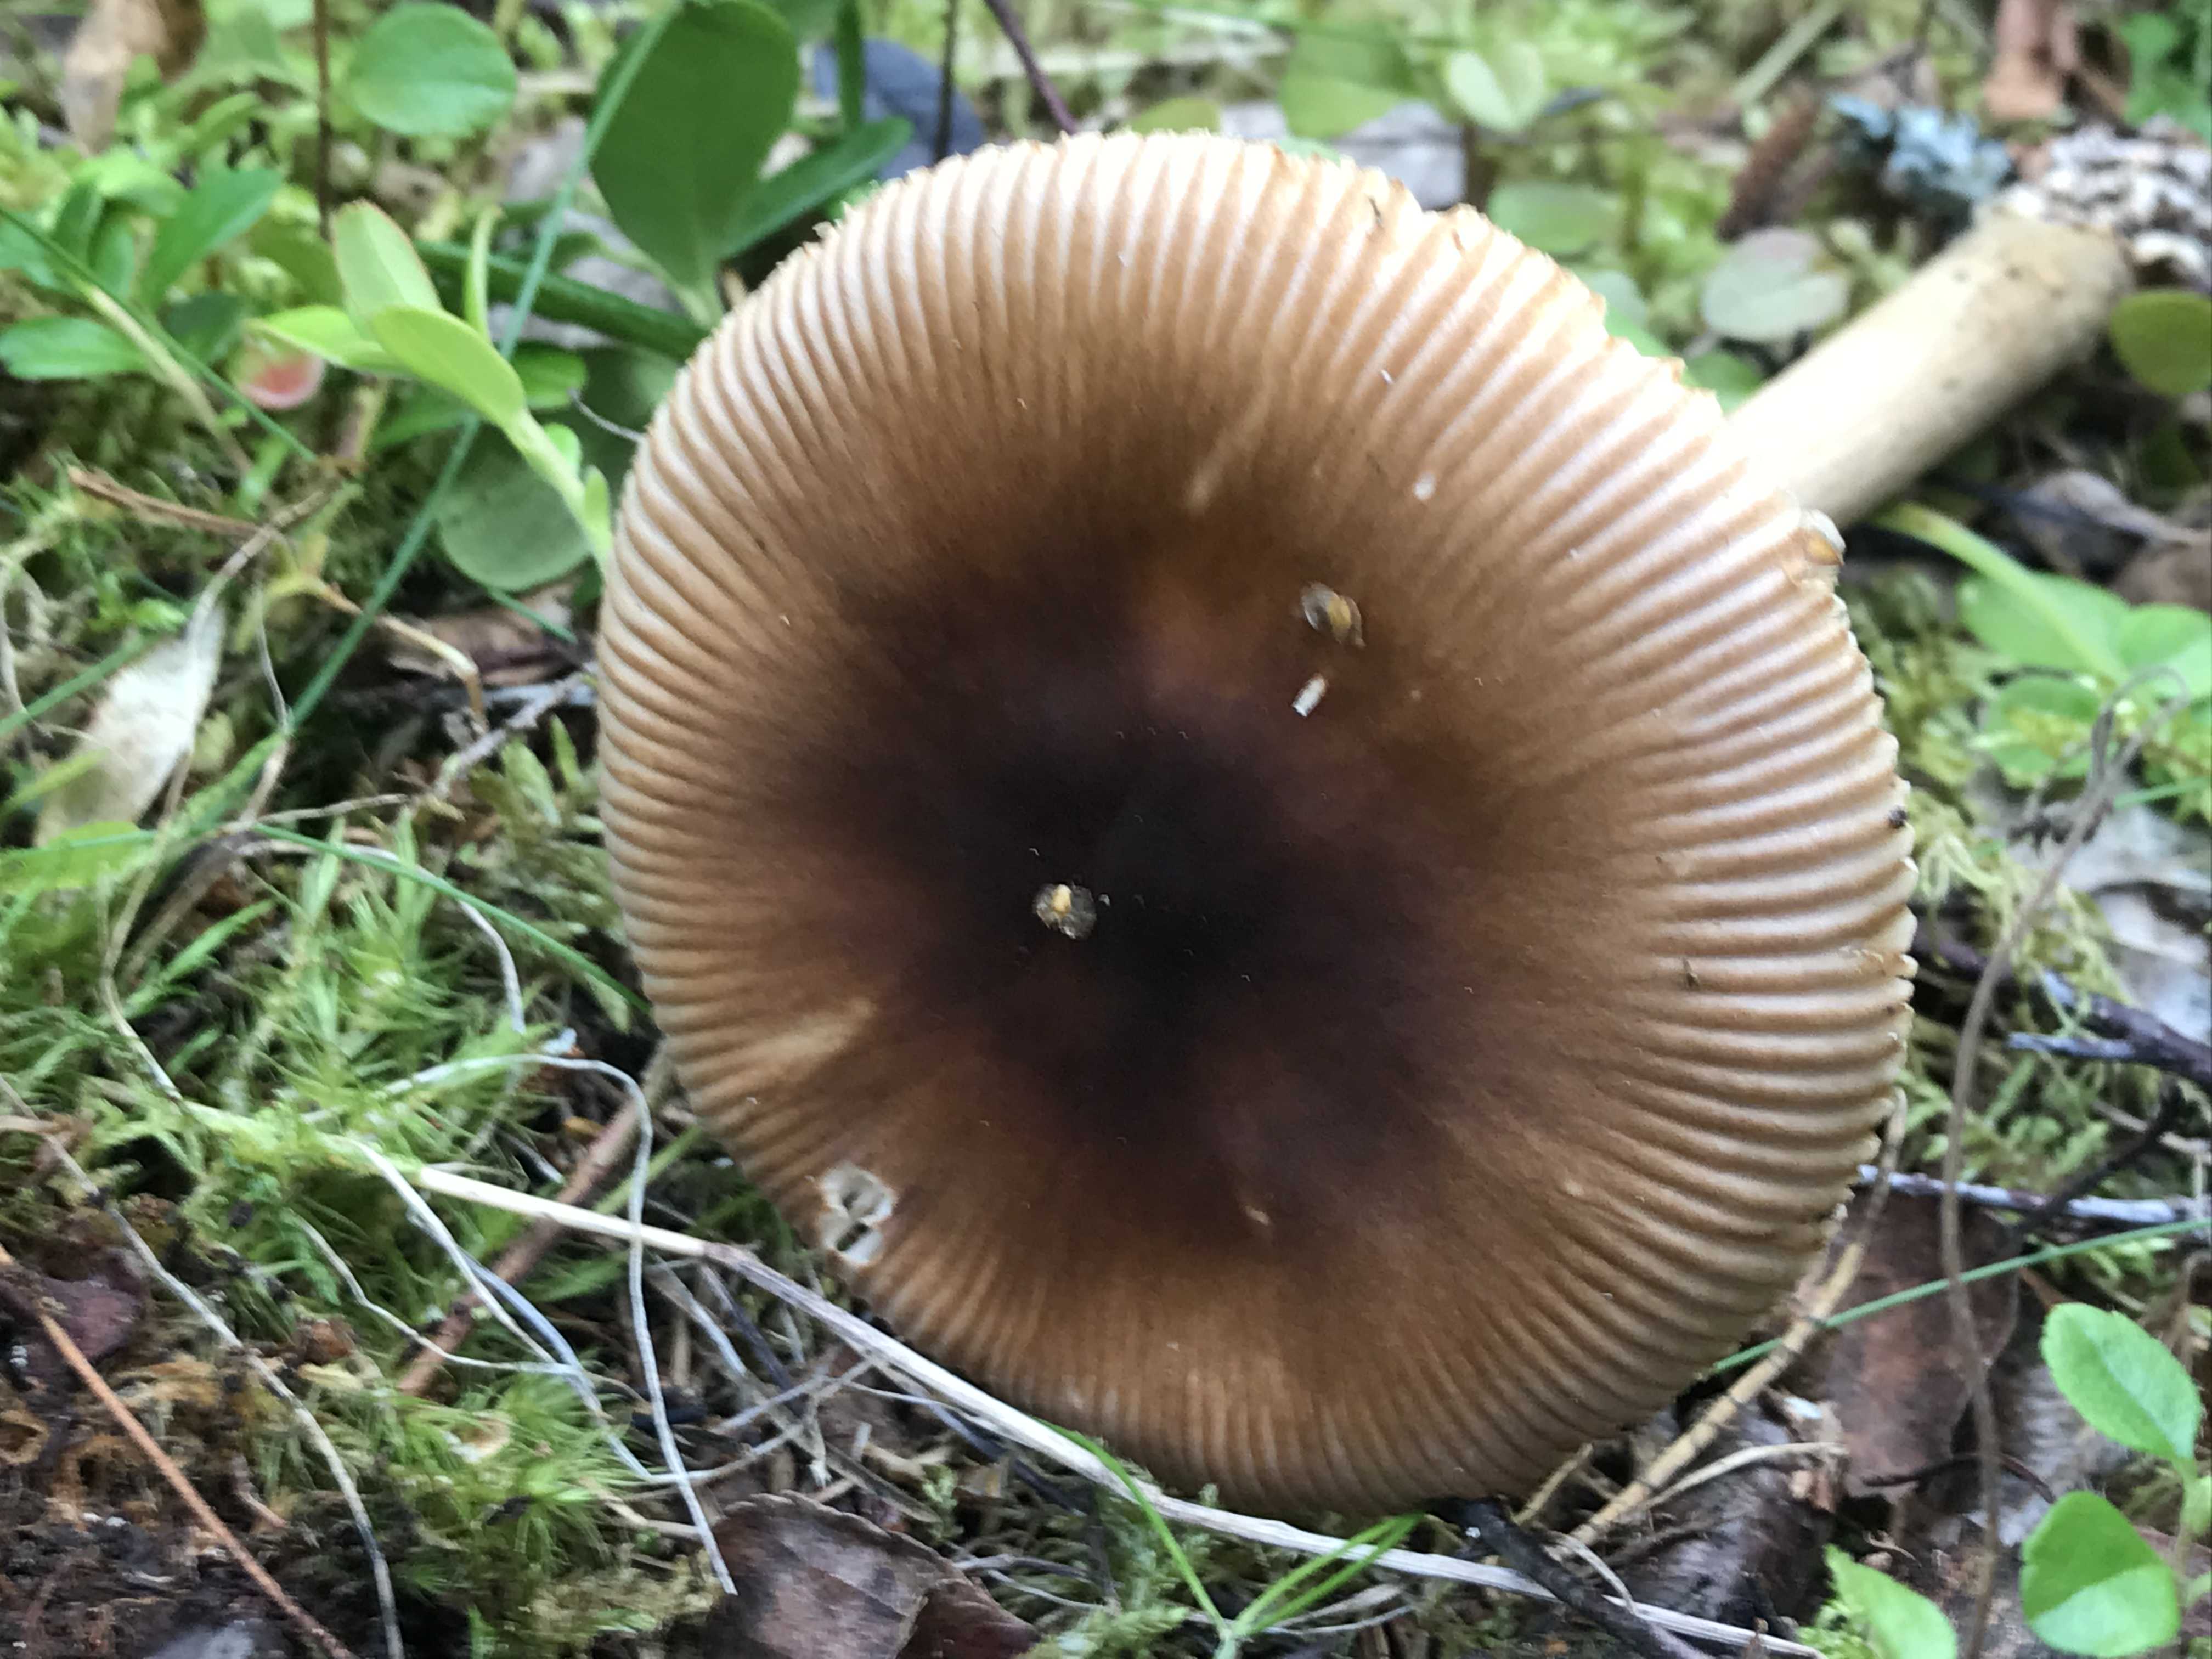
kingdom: Fungi
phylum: Basidiomycota
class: Agaricomycetes
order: Agaricales
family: Amanitaceae
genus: Amanita
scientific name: Amanita fulva
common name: brun kam-fluesvamp
